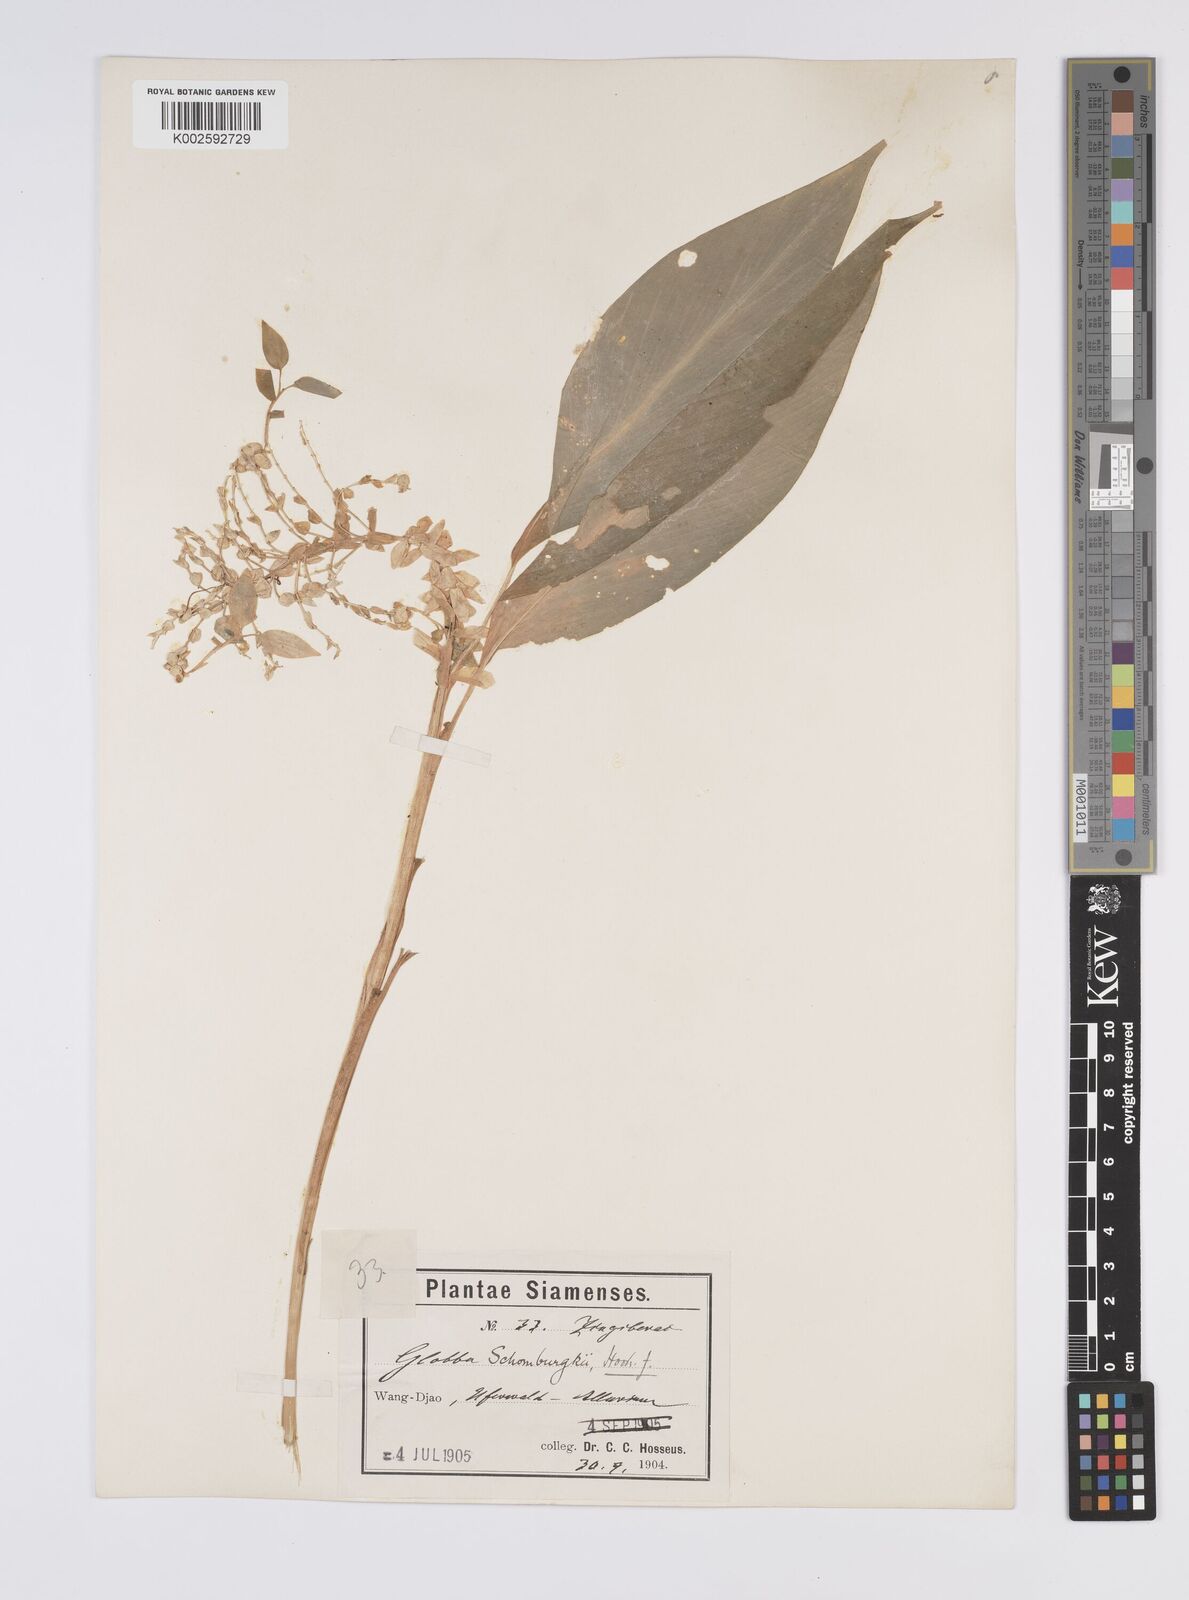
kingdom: Plantae
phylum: Tracheophyta
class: Liliopsida
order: Zingiberales
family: Zingiberaceae
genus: Globba
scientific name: Globba schomburgkii
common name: Dancing girl ginger
